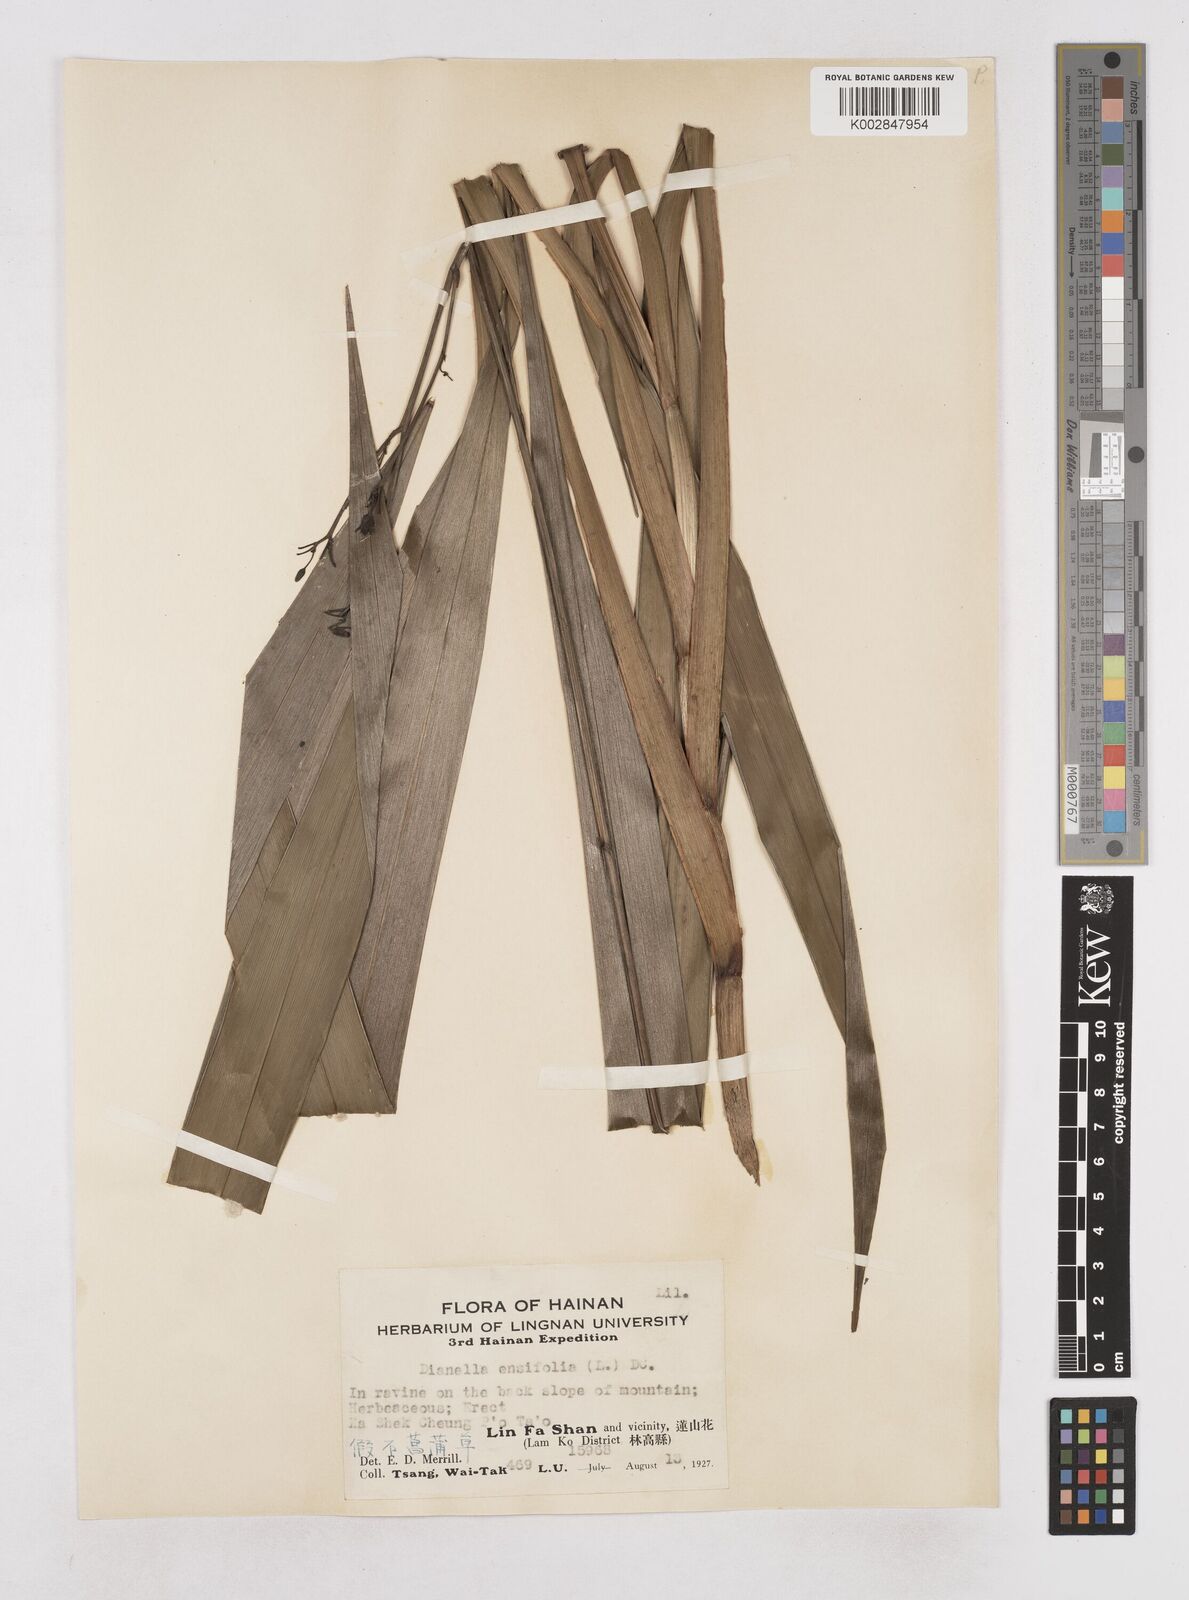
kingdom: Plantae
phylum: Tracheophyta
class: Liliopsida
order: Asparagales
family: Asphodelaceae
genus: Dianella
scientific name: Dianella ensifolia
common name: New zealand lilyplant
